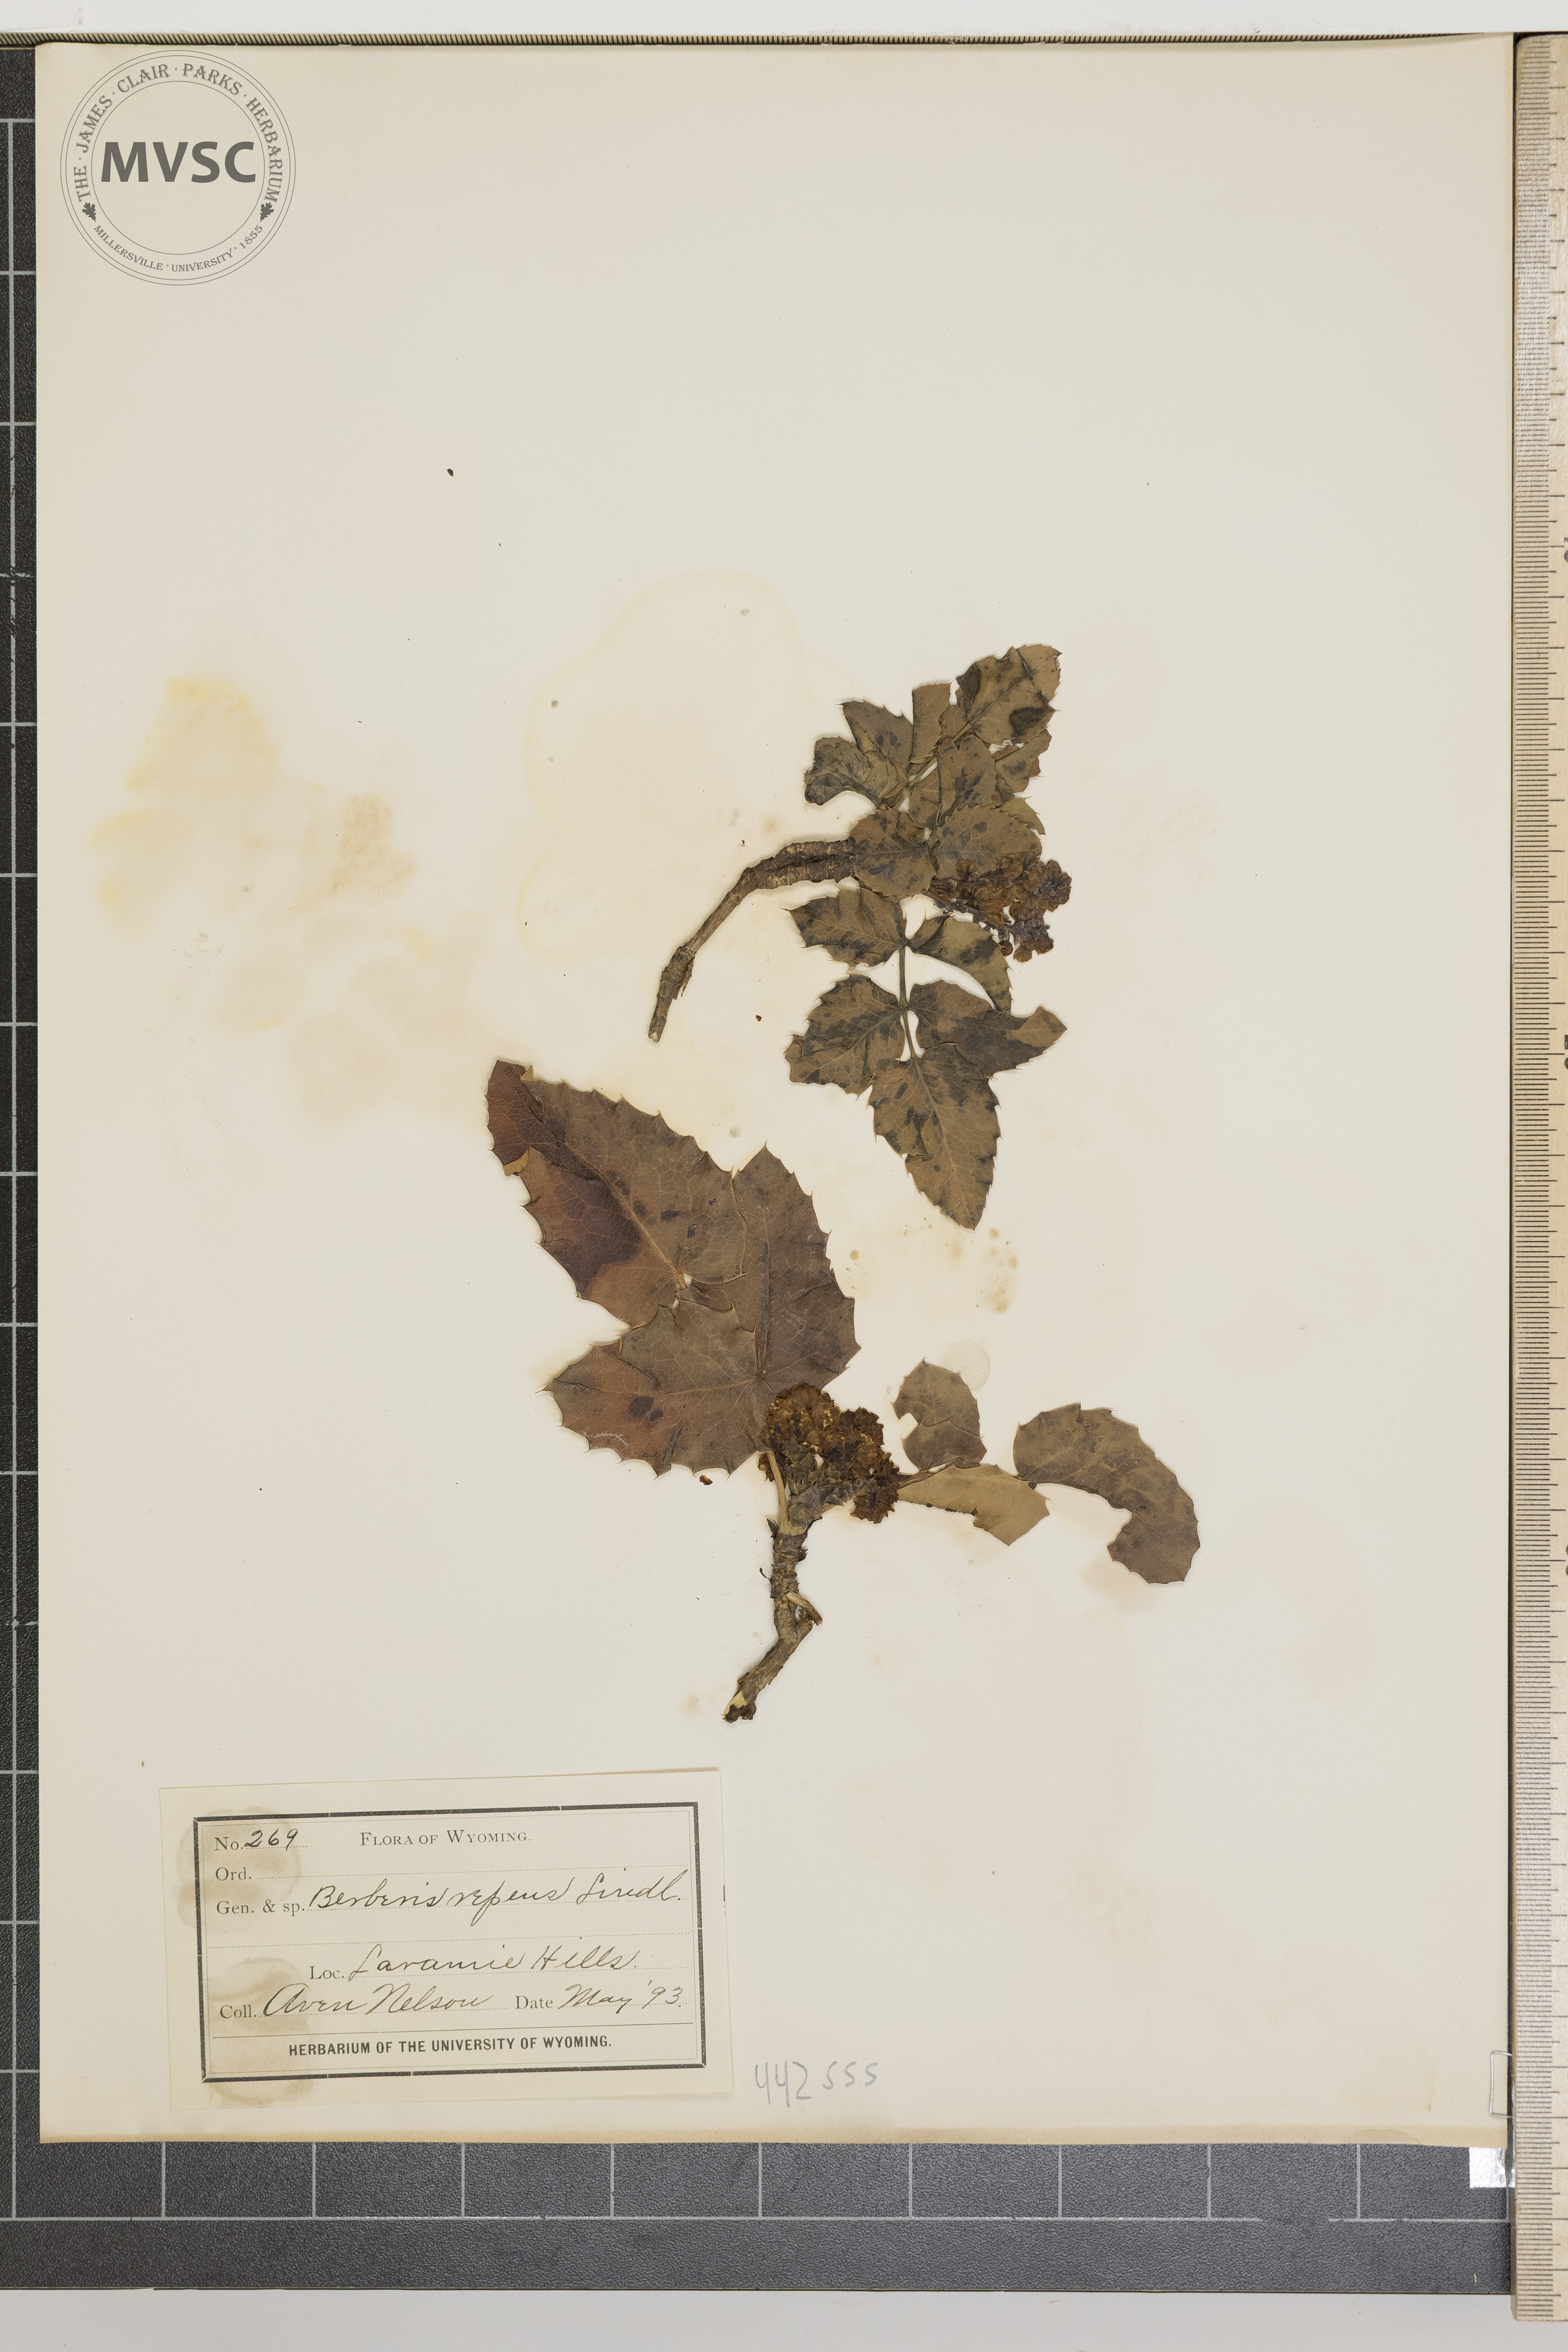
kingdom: Plantae
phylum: Tracheophyta
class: Magnoliopsida
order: Ranunculales
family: Berberidaceae
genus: Mahonia
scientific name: Mahonia repens
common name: Creeping oregon-grape
